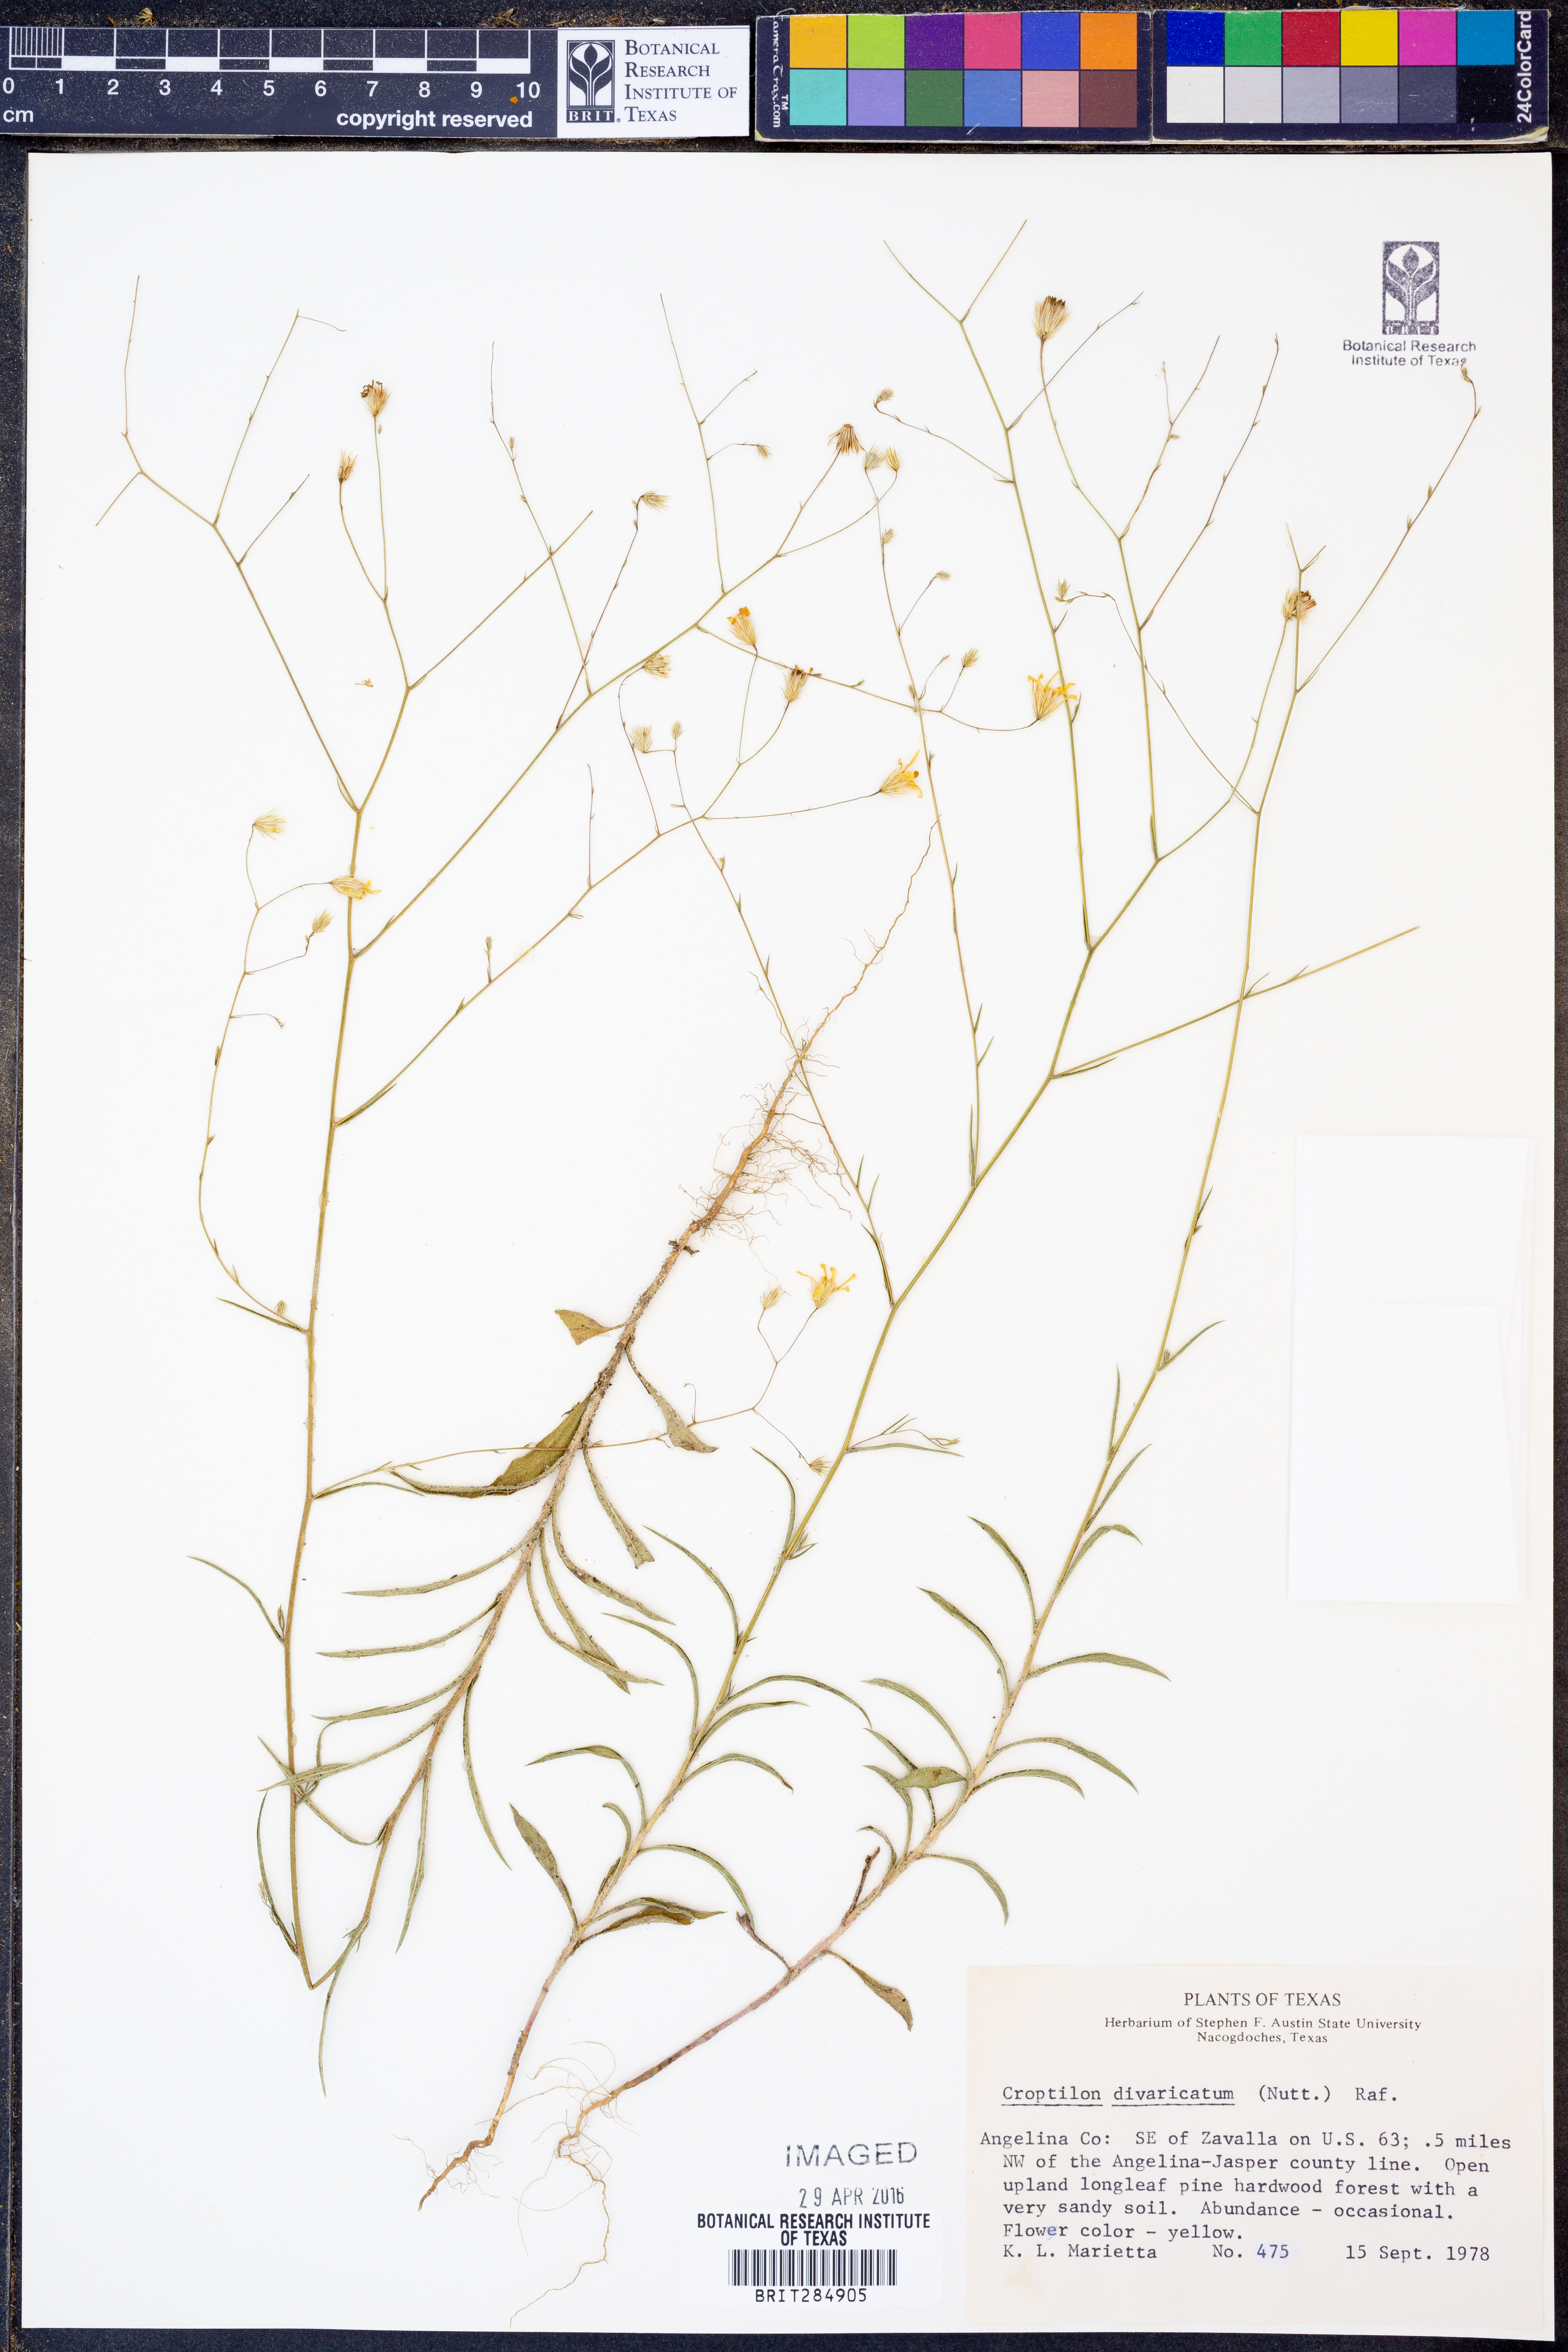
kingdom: Plantae
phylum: Tracheophyta
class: Magnoliopsida
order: Asterales
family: Asteraceae
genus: Croptilon
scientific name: Croptilon divaricatum
